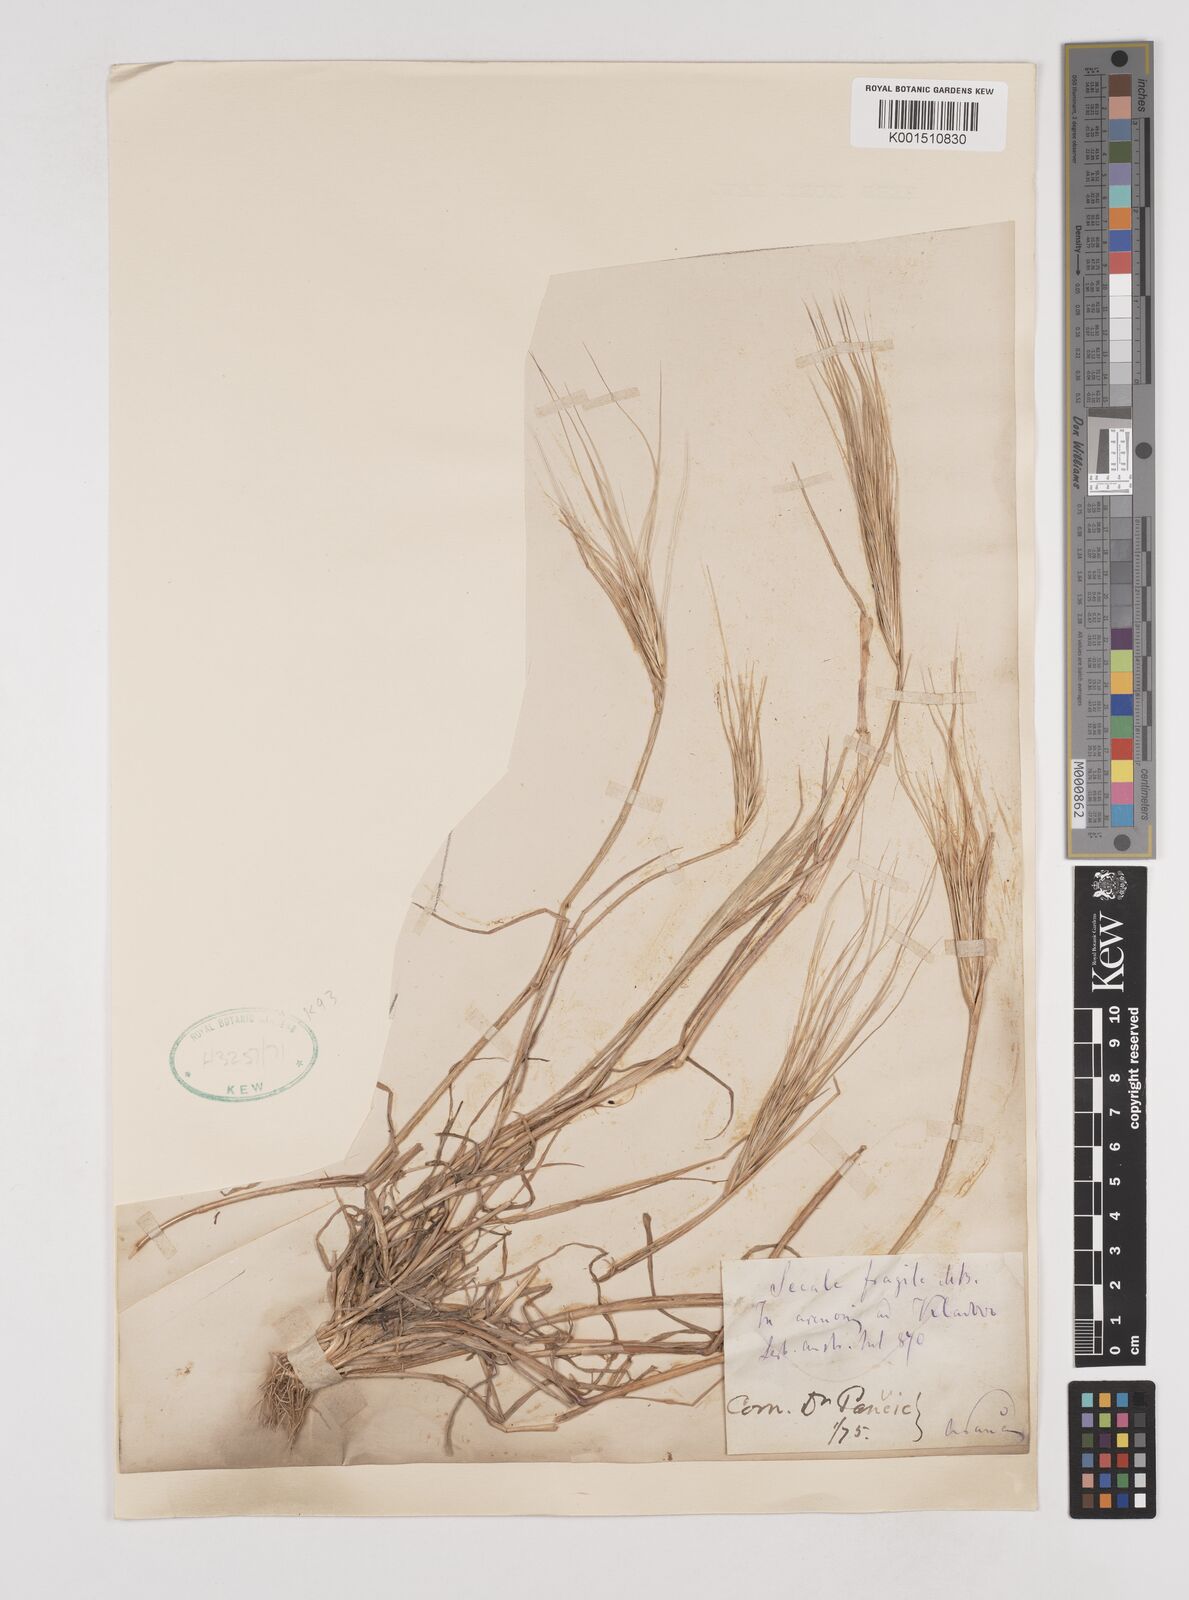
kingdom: Plantae
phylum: Tracheophyta
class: Liliopsida
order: Poales
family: Poaceae
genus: Secale
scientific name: Secale sylvestre
